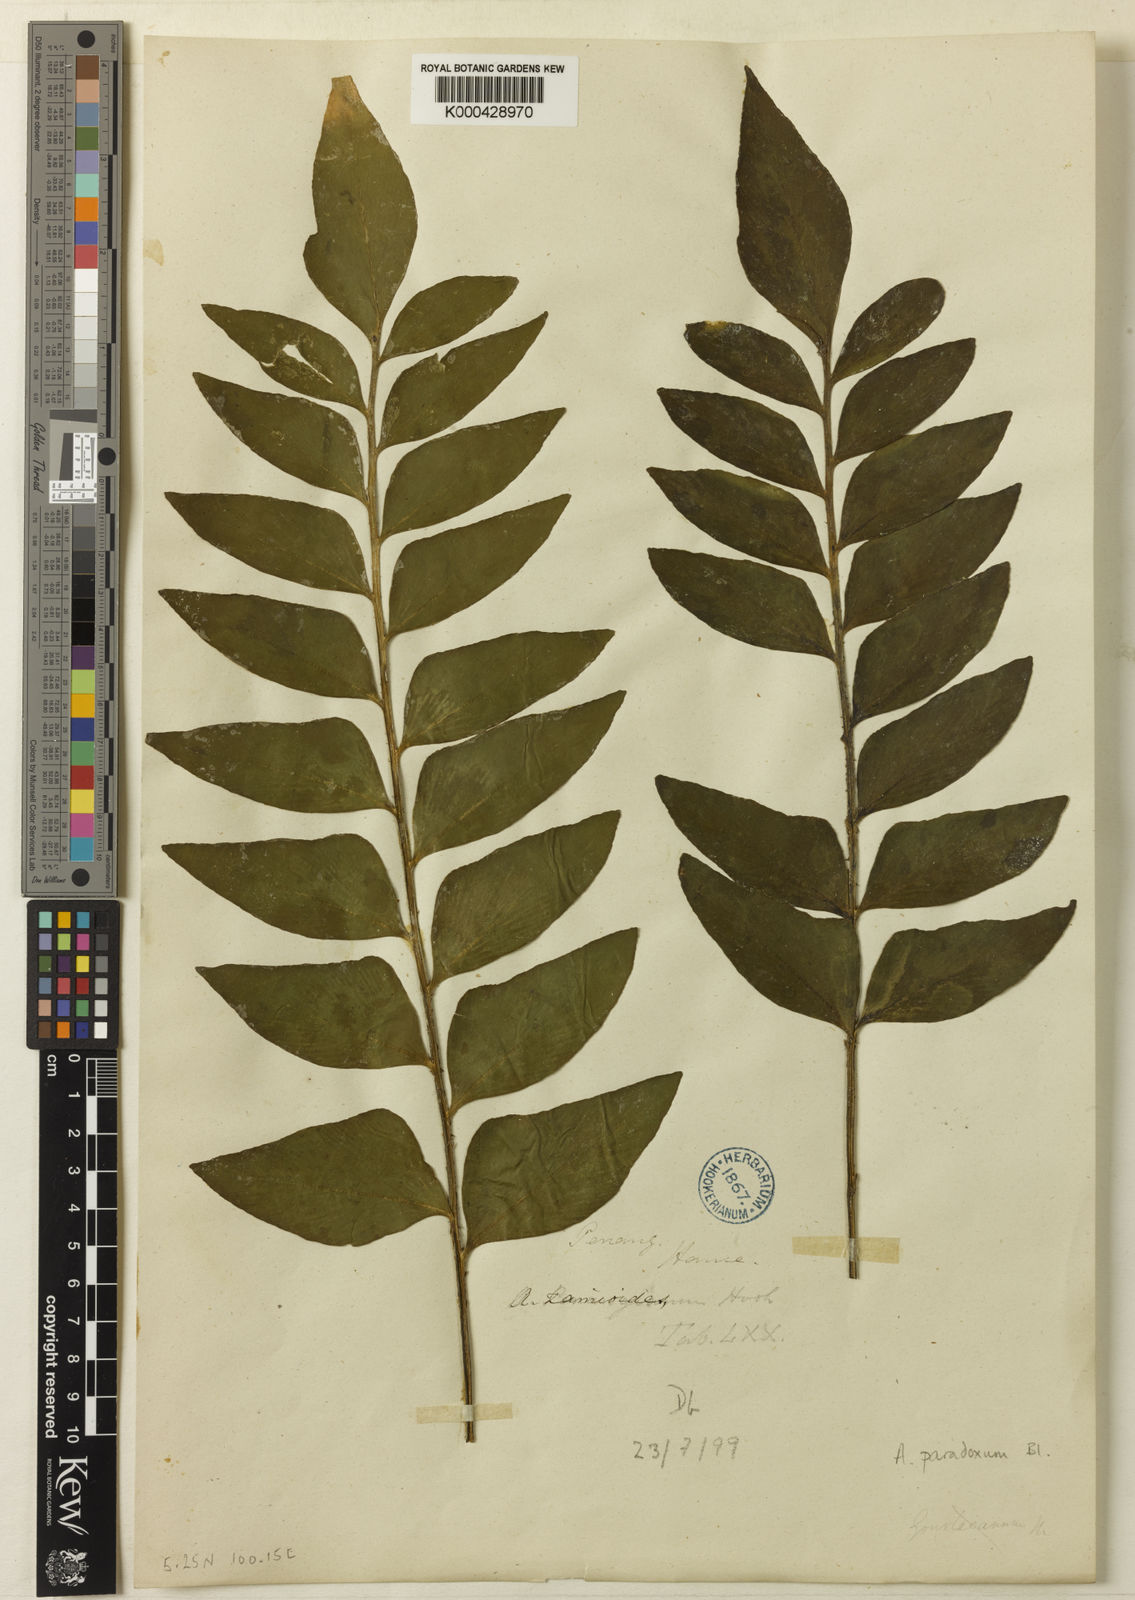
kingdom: Plantae
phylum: Tracheophyta
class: Polypodiopsida
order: Polypodiales
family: Aspleniaceae
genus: Asplenium
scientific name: Asplenium macrophyllum
